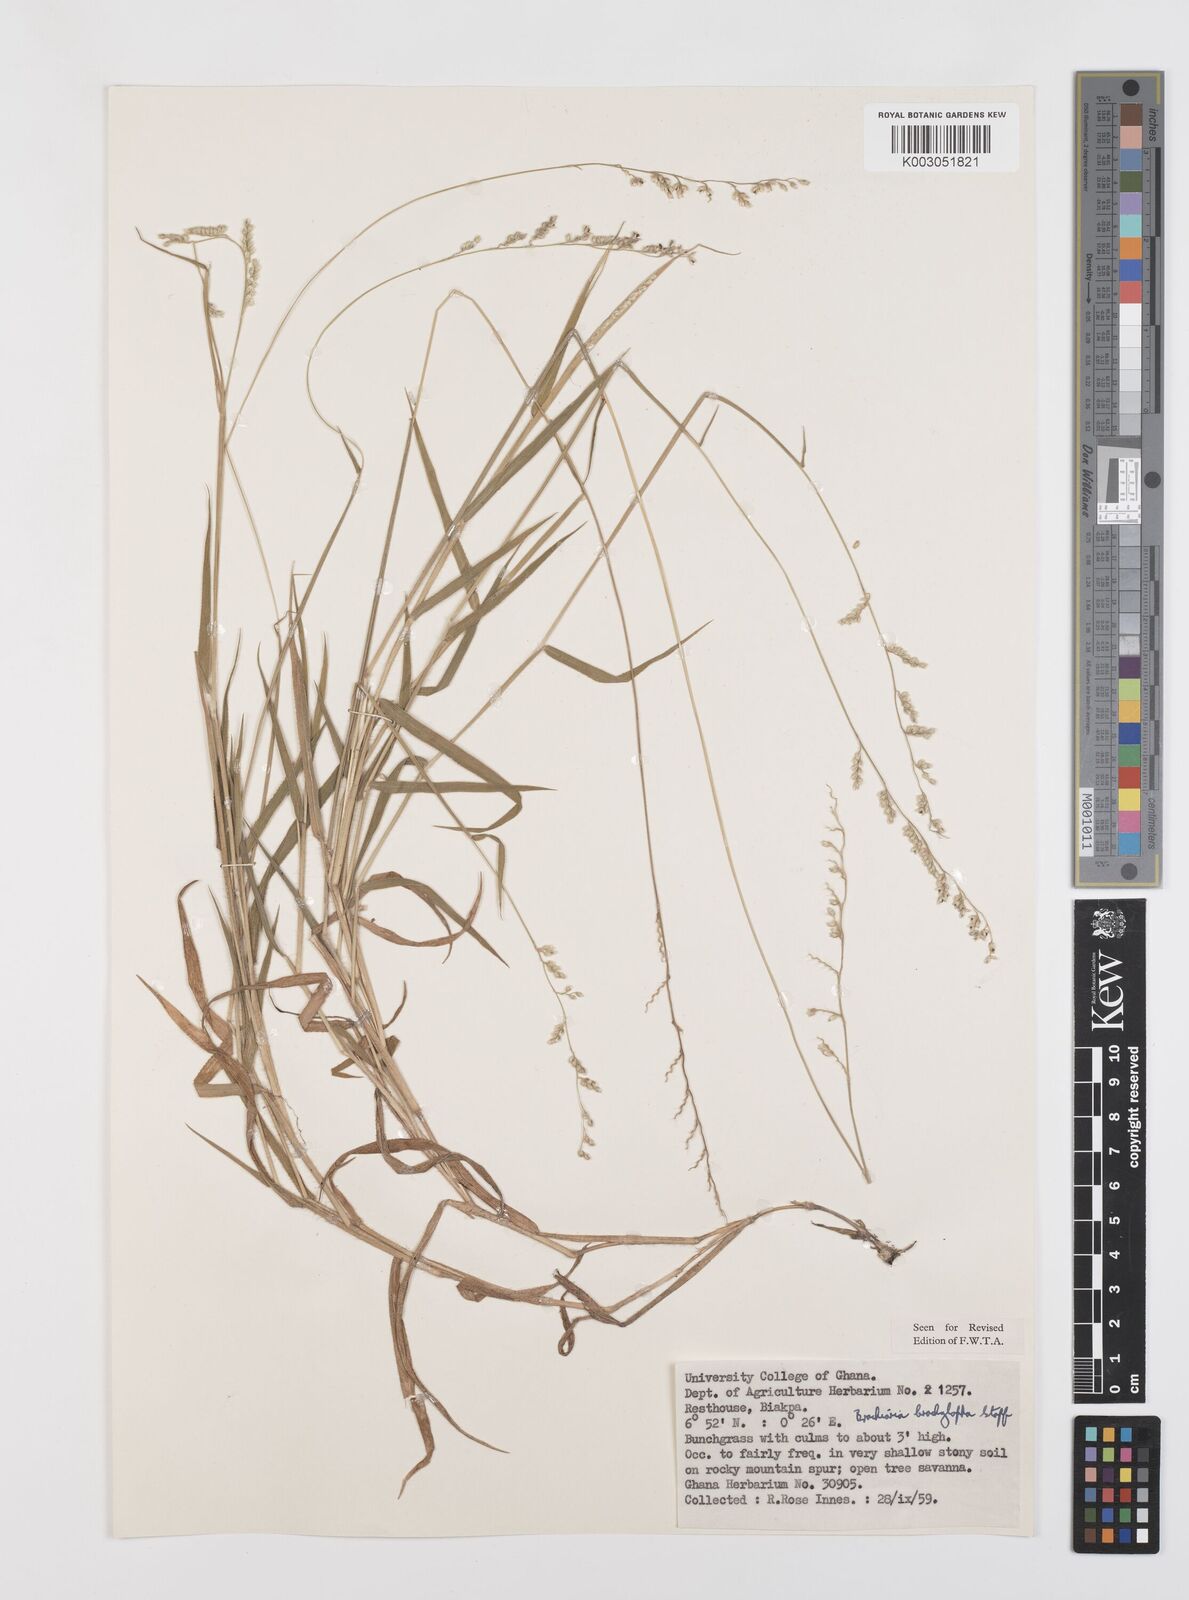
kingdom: Plantae
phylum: Tracheophyta
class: Liliopsida
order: Poales
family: Poaceae
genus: Urochloa
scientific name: Urochloa serrata
